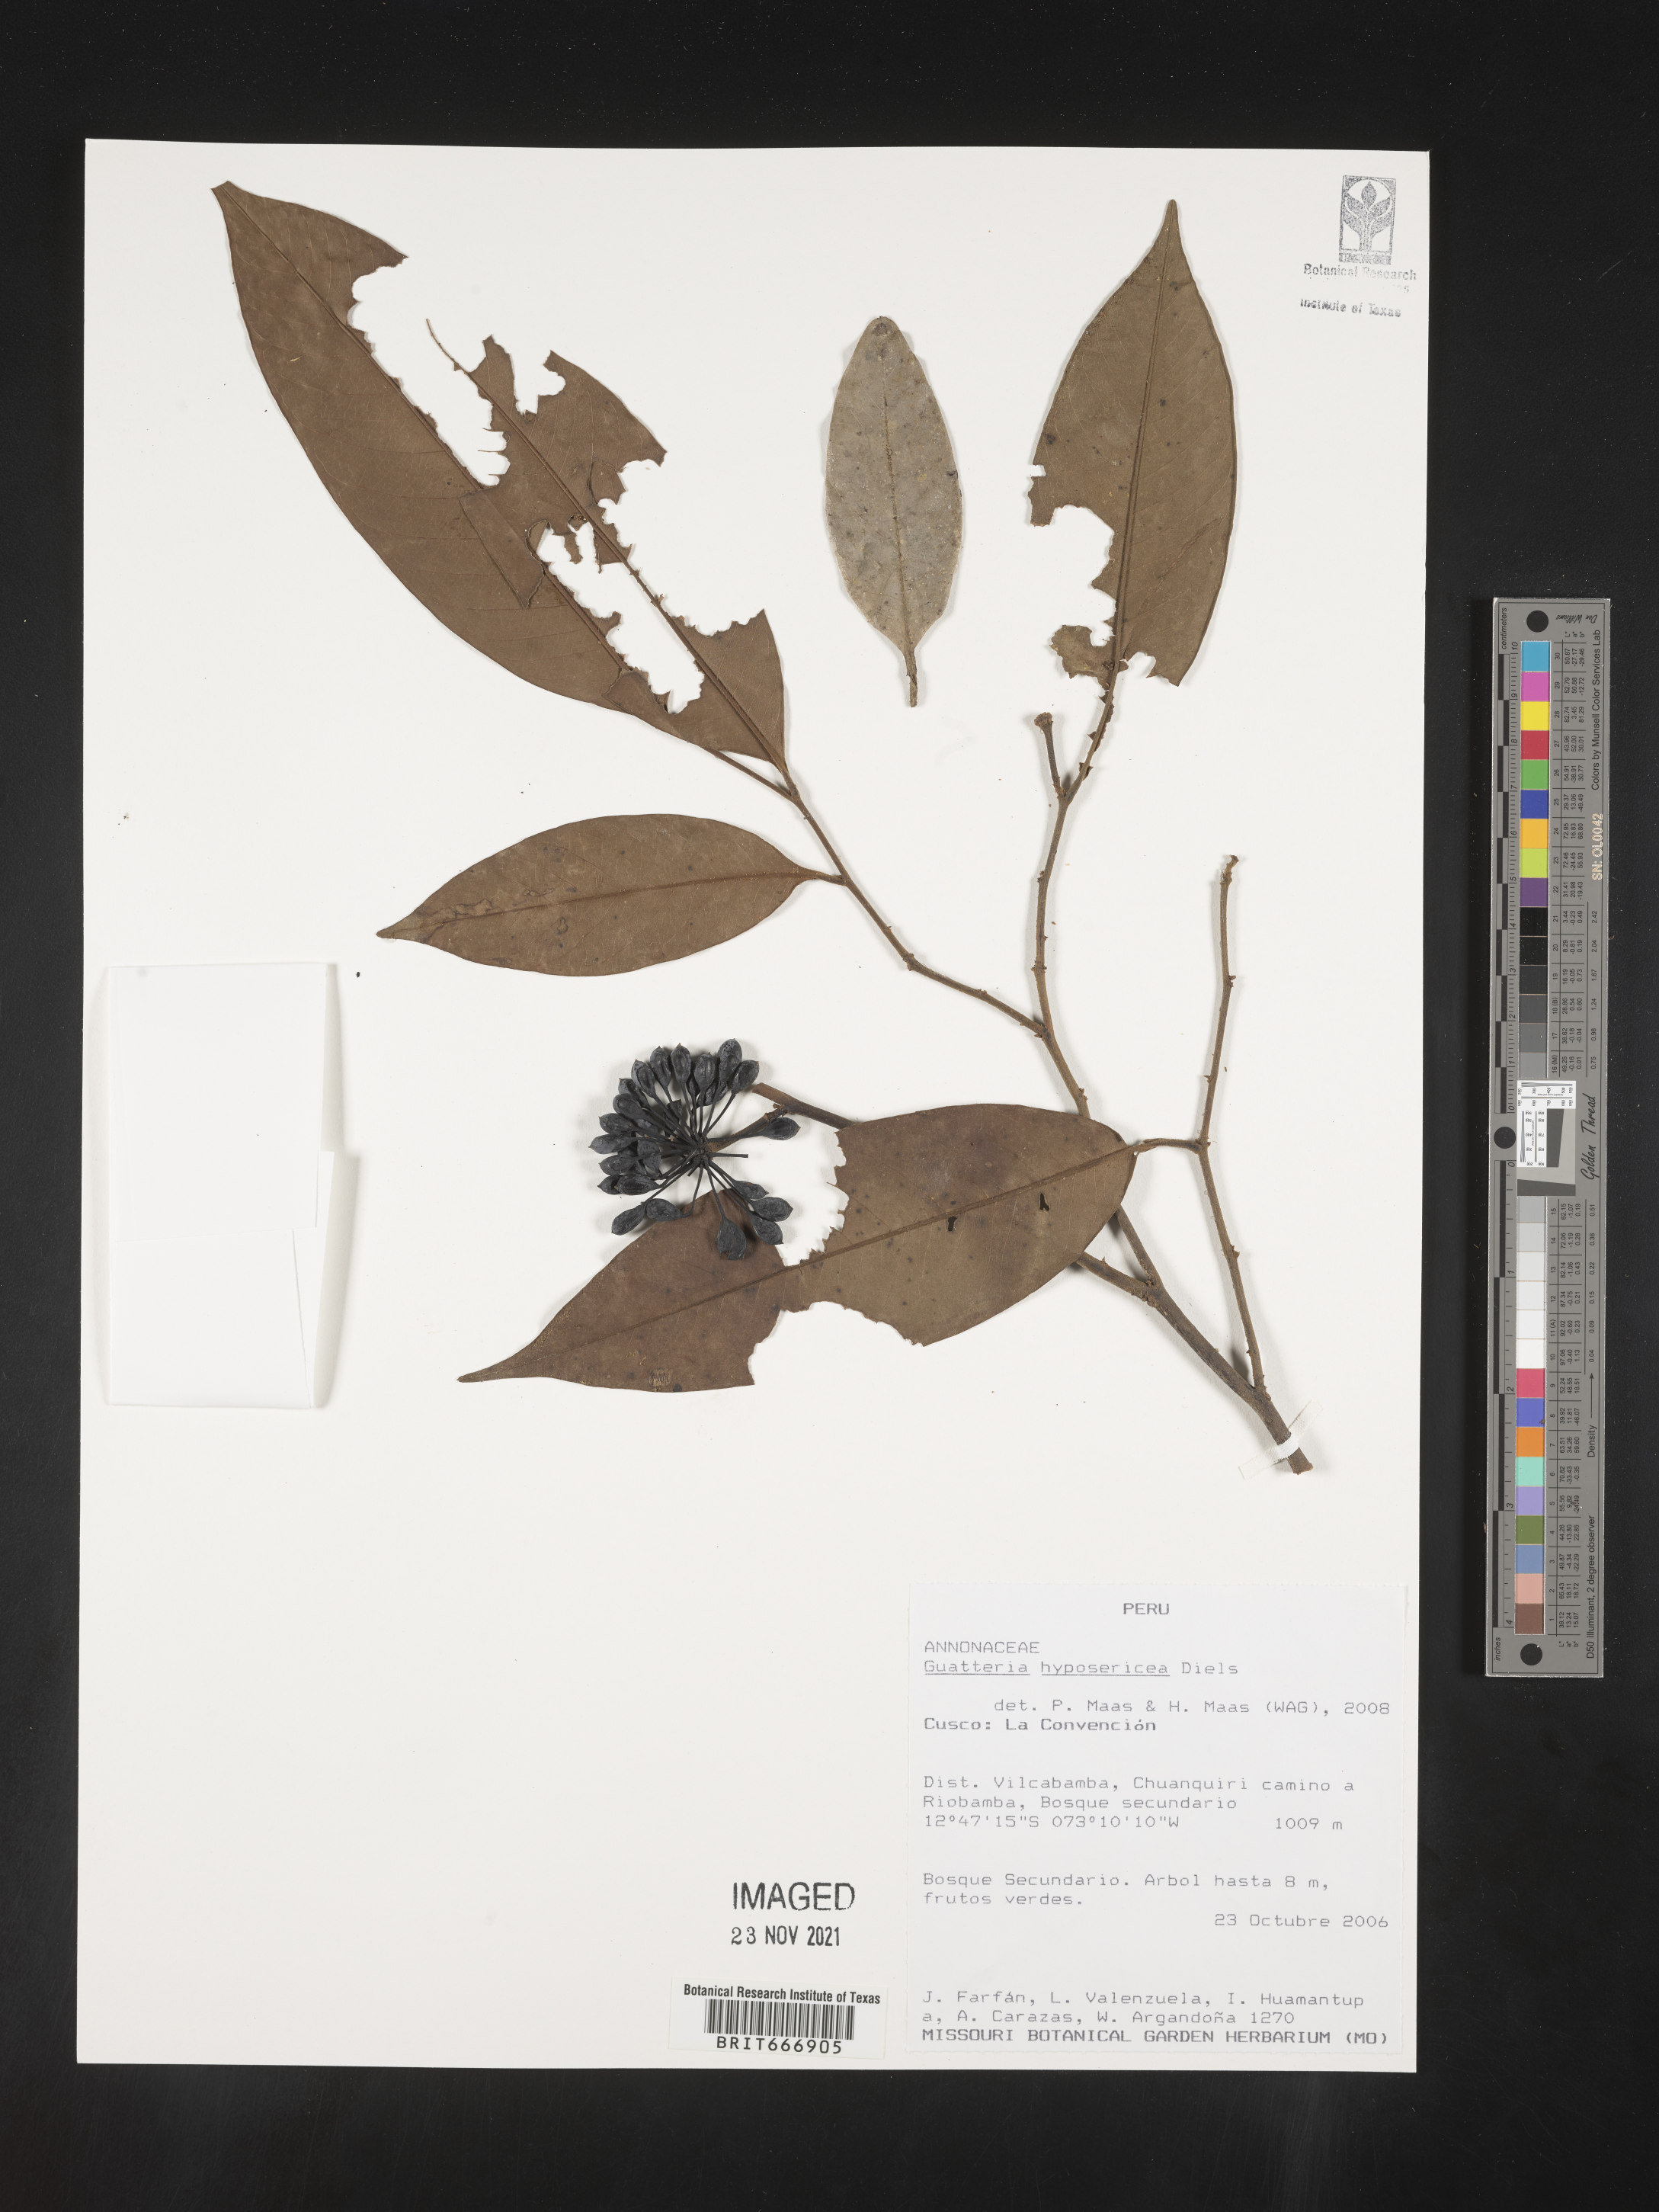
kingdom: Plantae
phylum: Tracheophyta
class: Magnoliopsida
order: Magnoliales
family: Annonaceae
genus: Guatteria
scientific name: Guatteria
